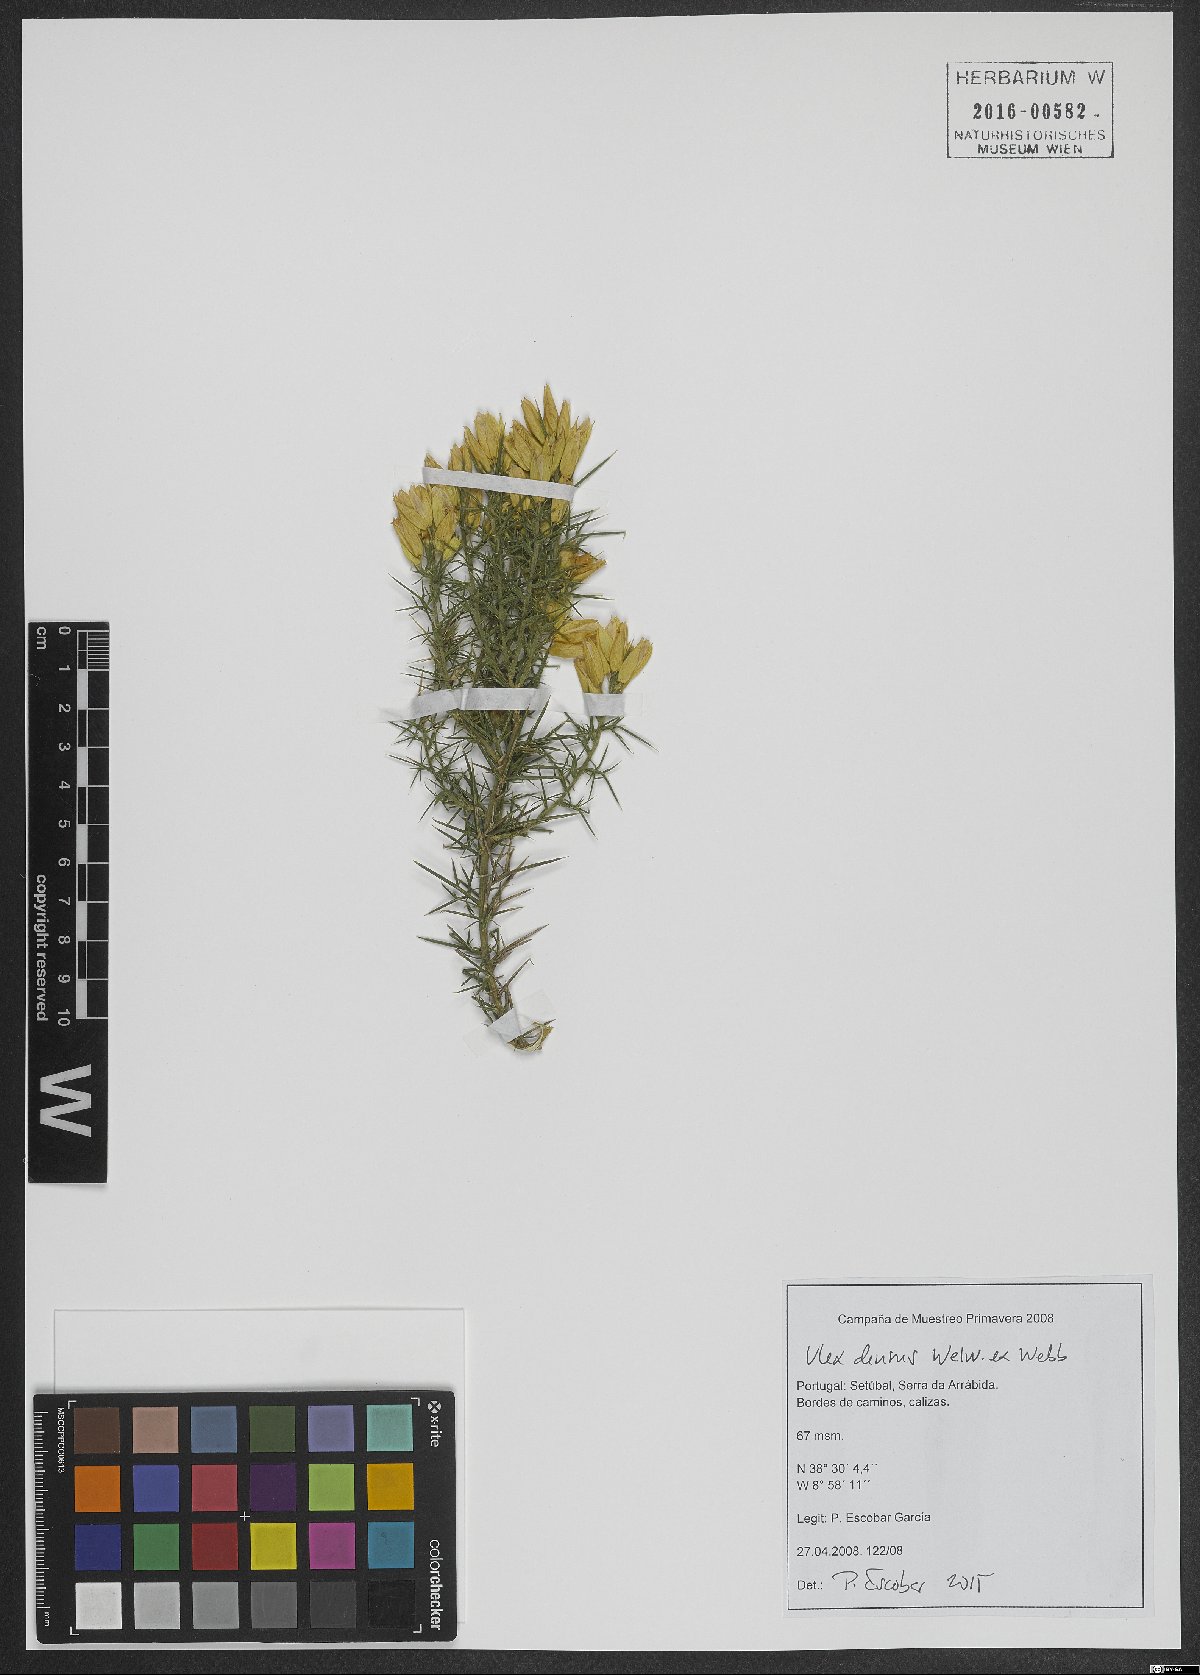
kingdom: Plantae
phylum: Tracheophyta
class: Magnoliopsida
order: Fabales
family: Fabaceae
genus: Ulex
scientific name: Ulex densus
